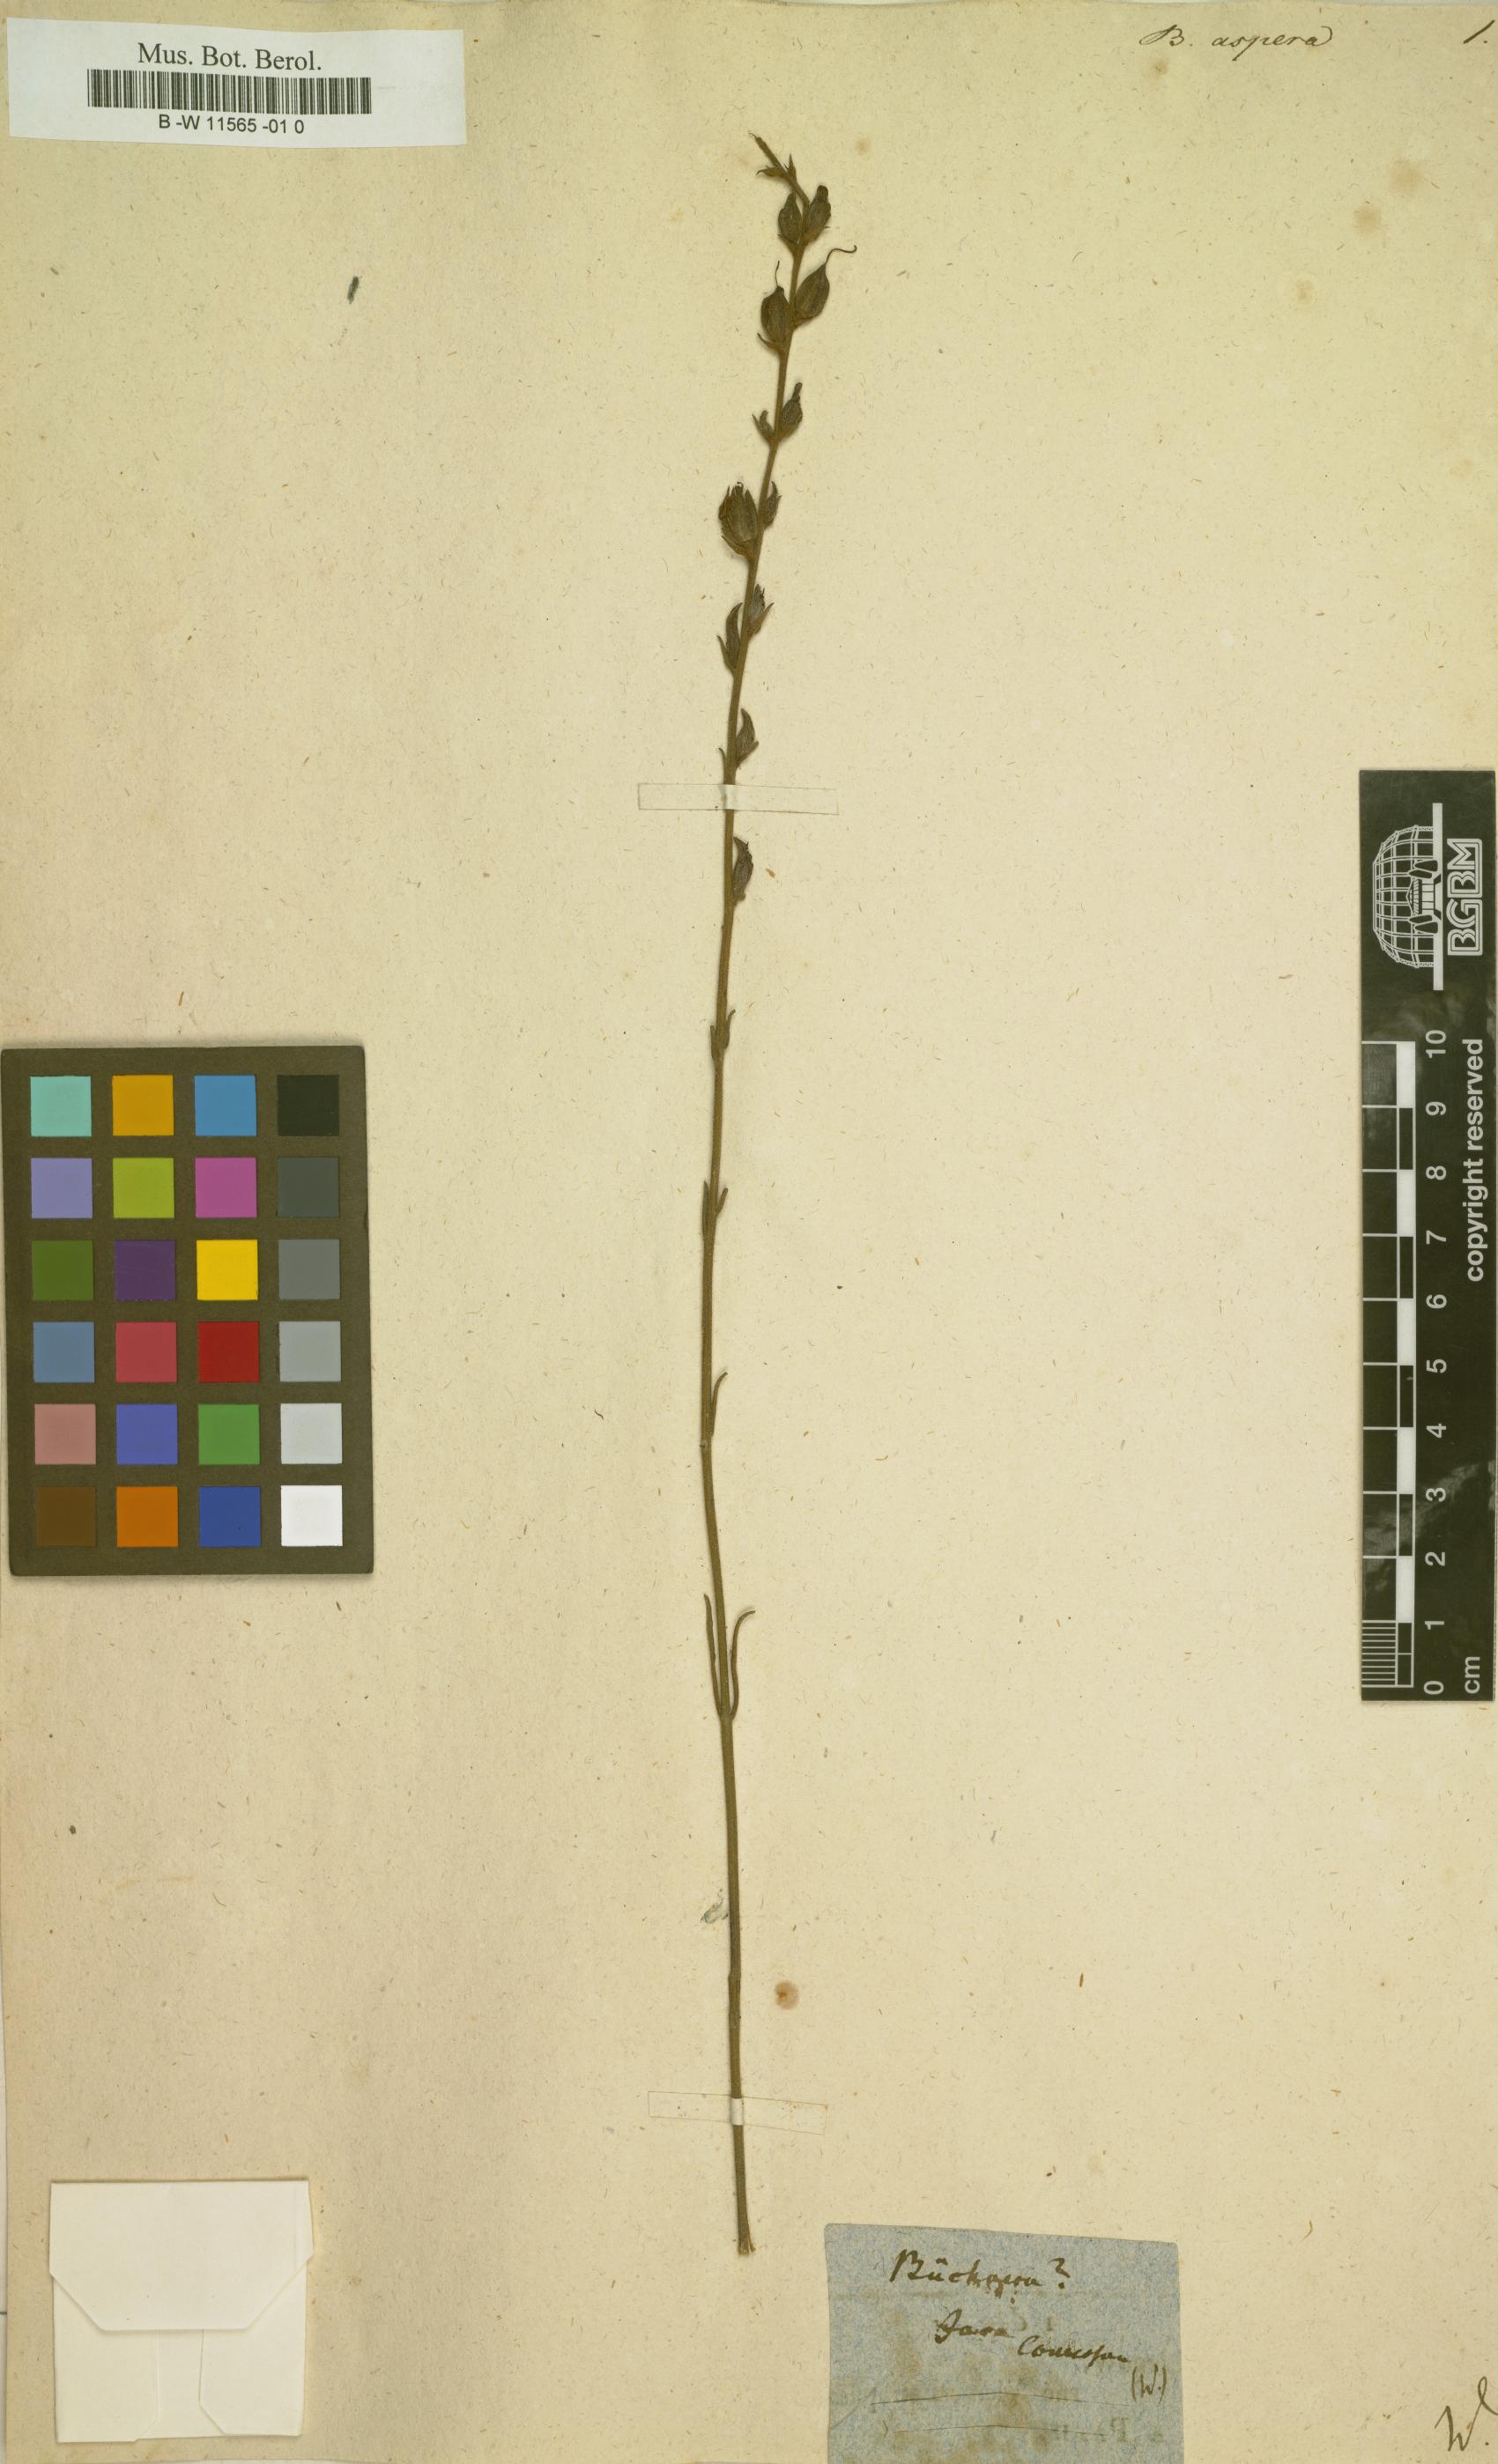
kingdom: Plantae
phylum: Tracheophyta
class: Magnoliopsida
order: Lamiales
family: Orobanchaceae
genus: Striga
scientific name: Striga aspera
